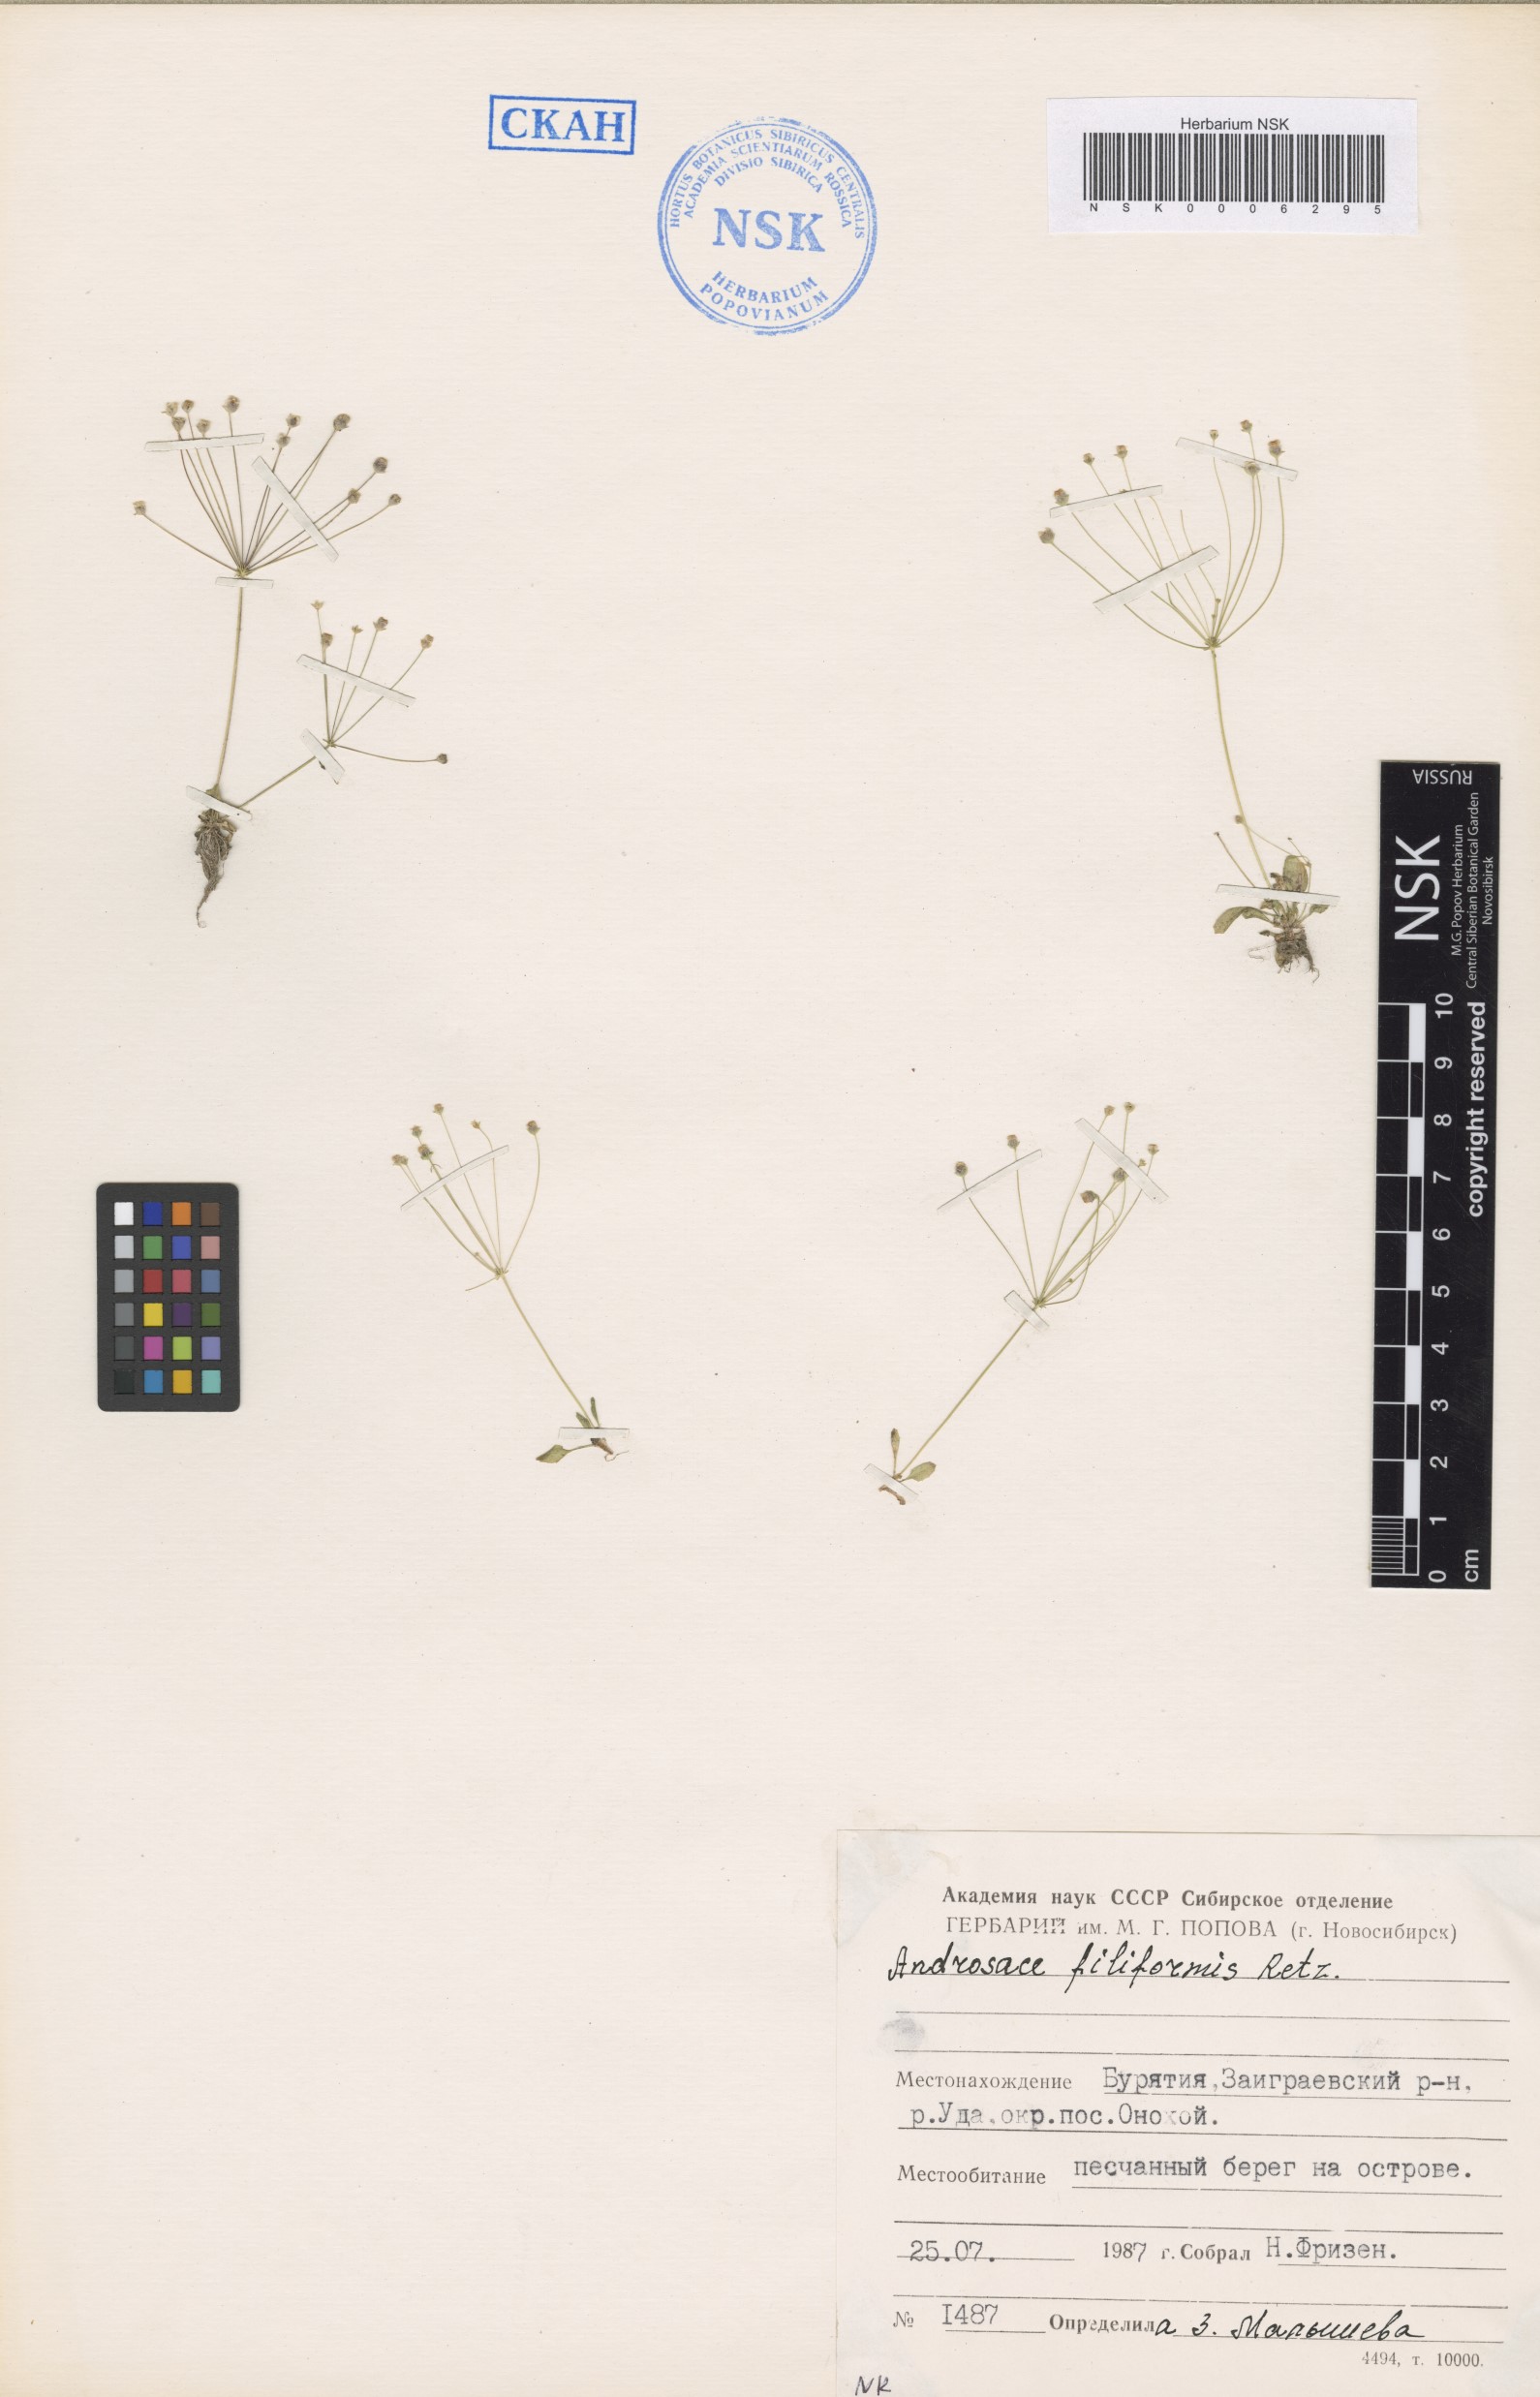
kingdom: Plantae
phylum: Tracheophyta
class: Magnoliopsida
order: Ericales
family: Primulaceae
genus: Androsace
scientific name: Androsace filiformis
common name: Filiform rock jasmine
